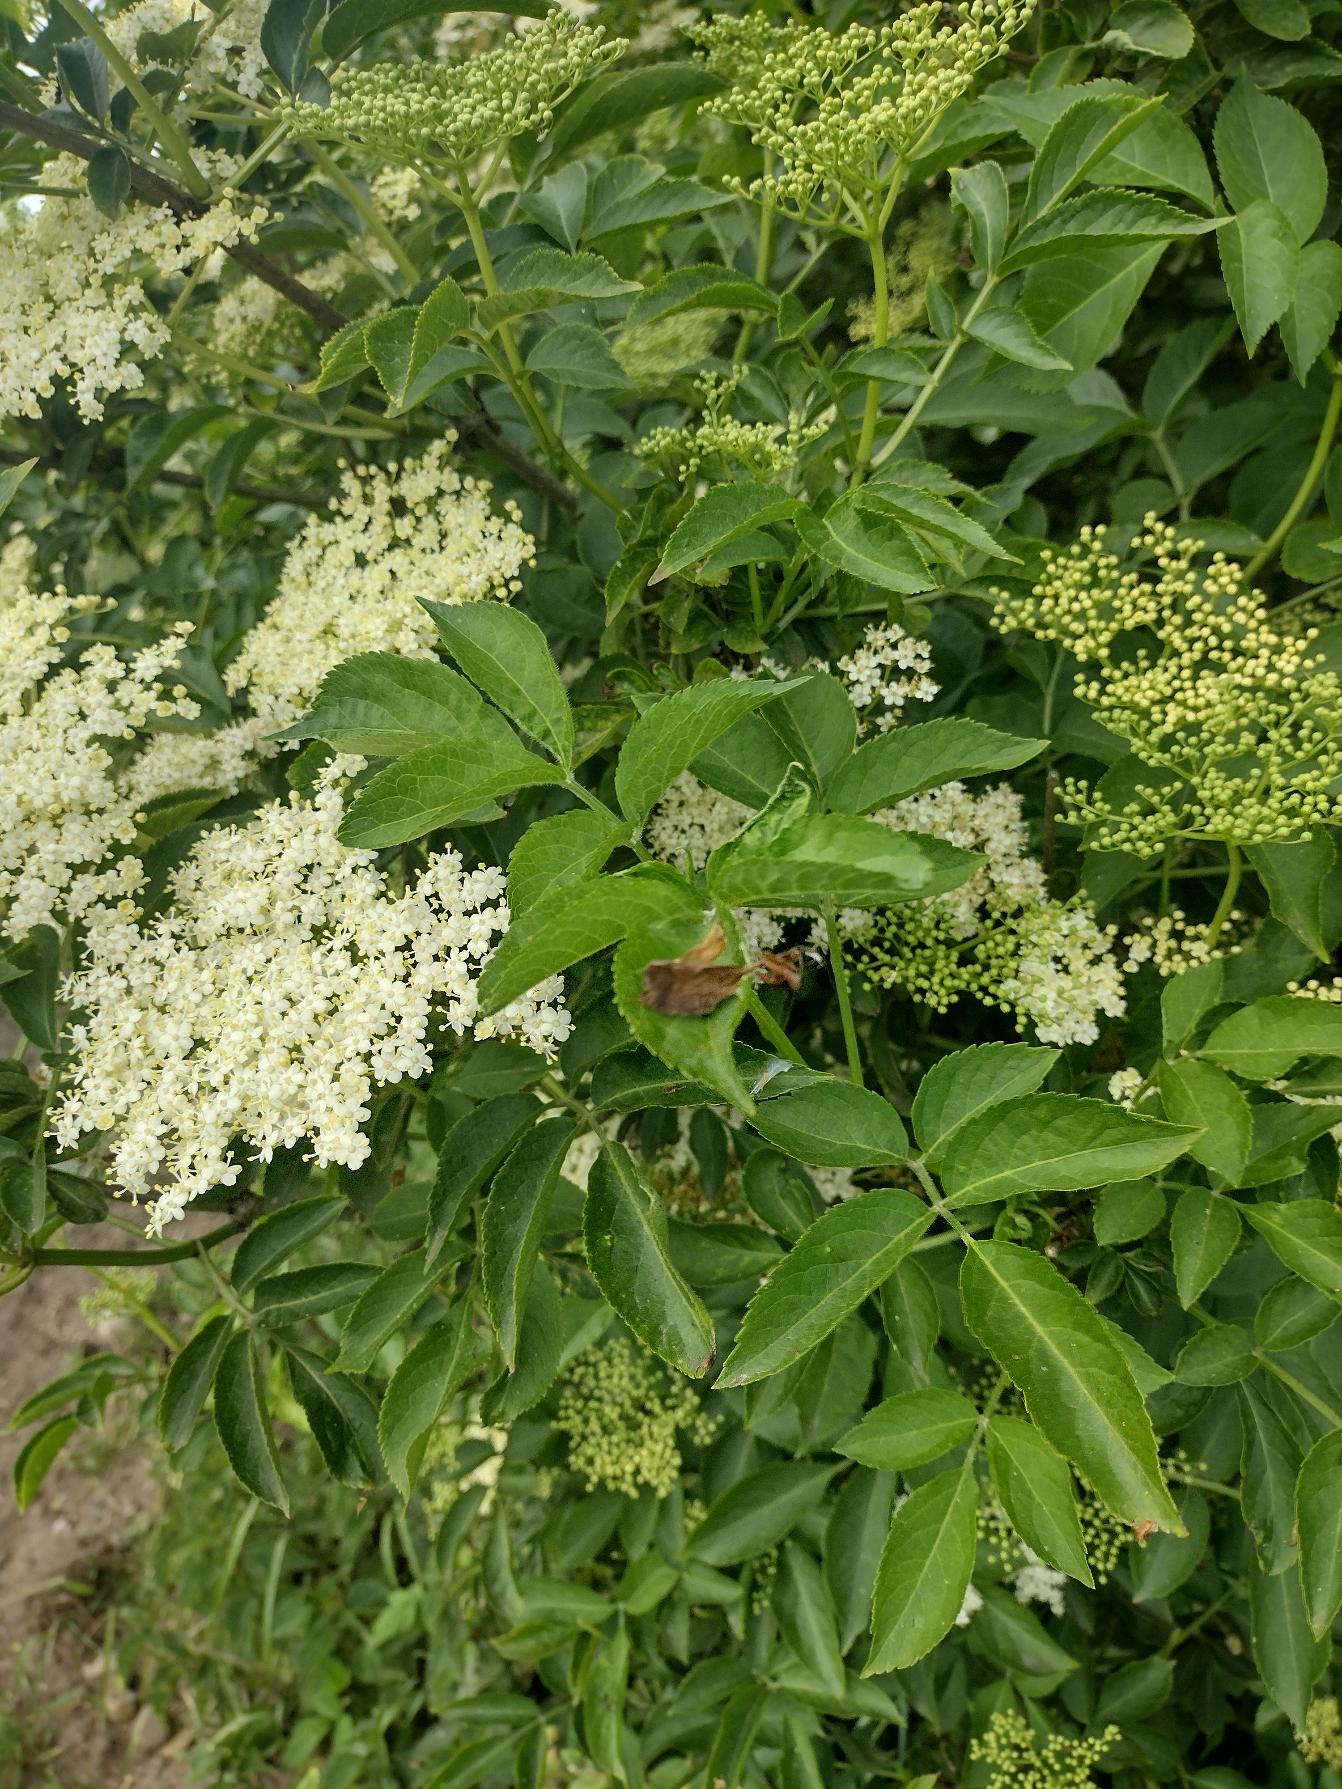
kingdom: Plantae
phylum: Tracheophyta
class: Magnoliopsida
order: Dipsacales
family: Viburnaceae
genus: Sambucus
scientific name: Sambucus nigra
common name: Almindelig hyld
